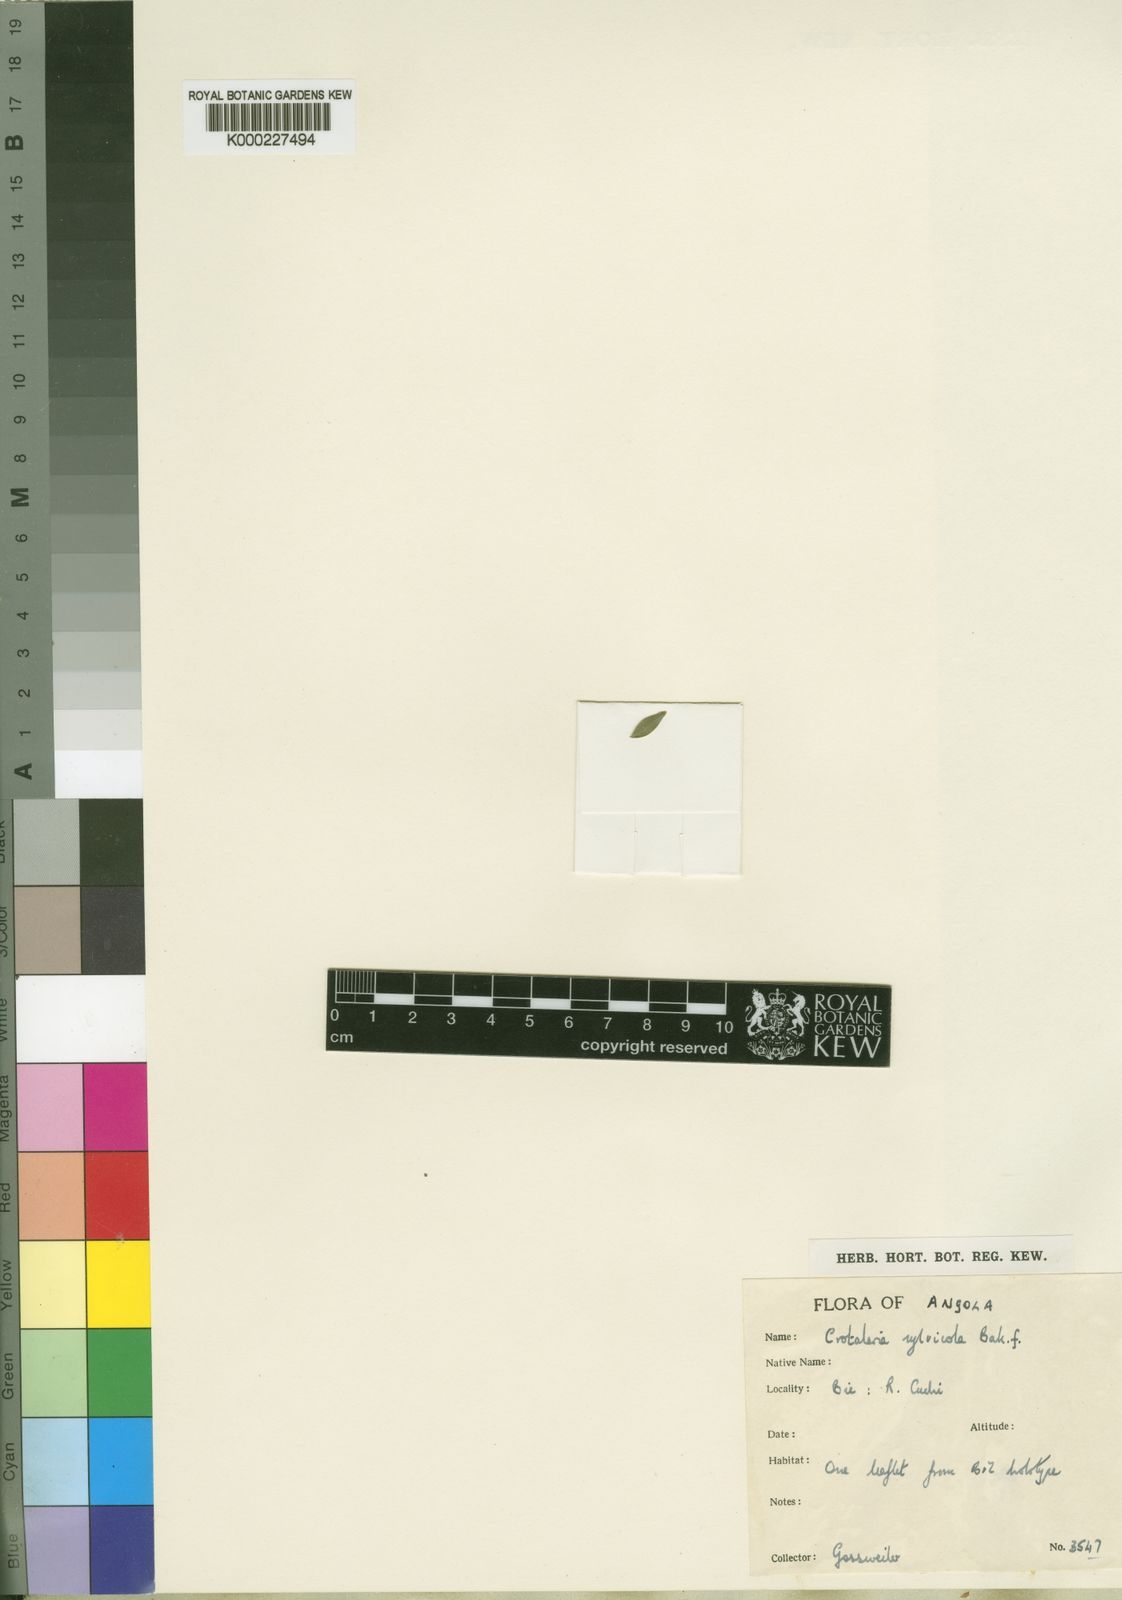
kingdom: Plantae
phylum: Tracheophyta
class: Magnoliopsida
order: Fabales
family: Fabaceae
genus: Crotalaria
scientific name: Crotalaria sylvicola
